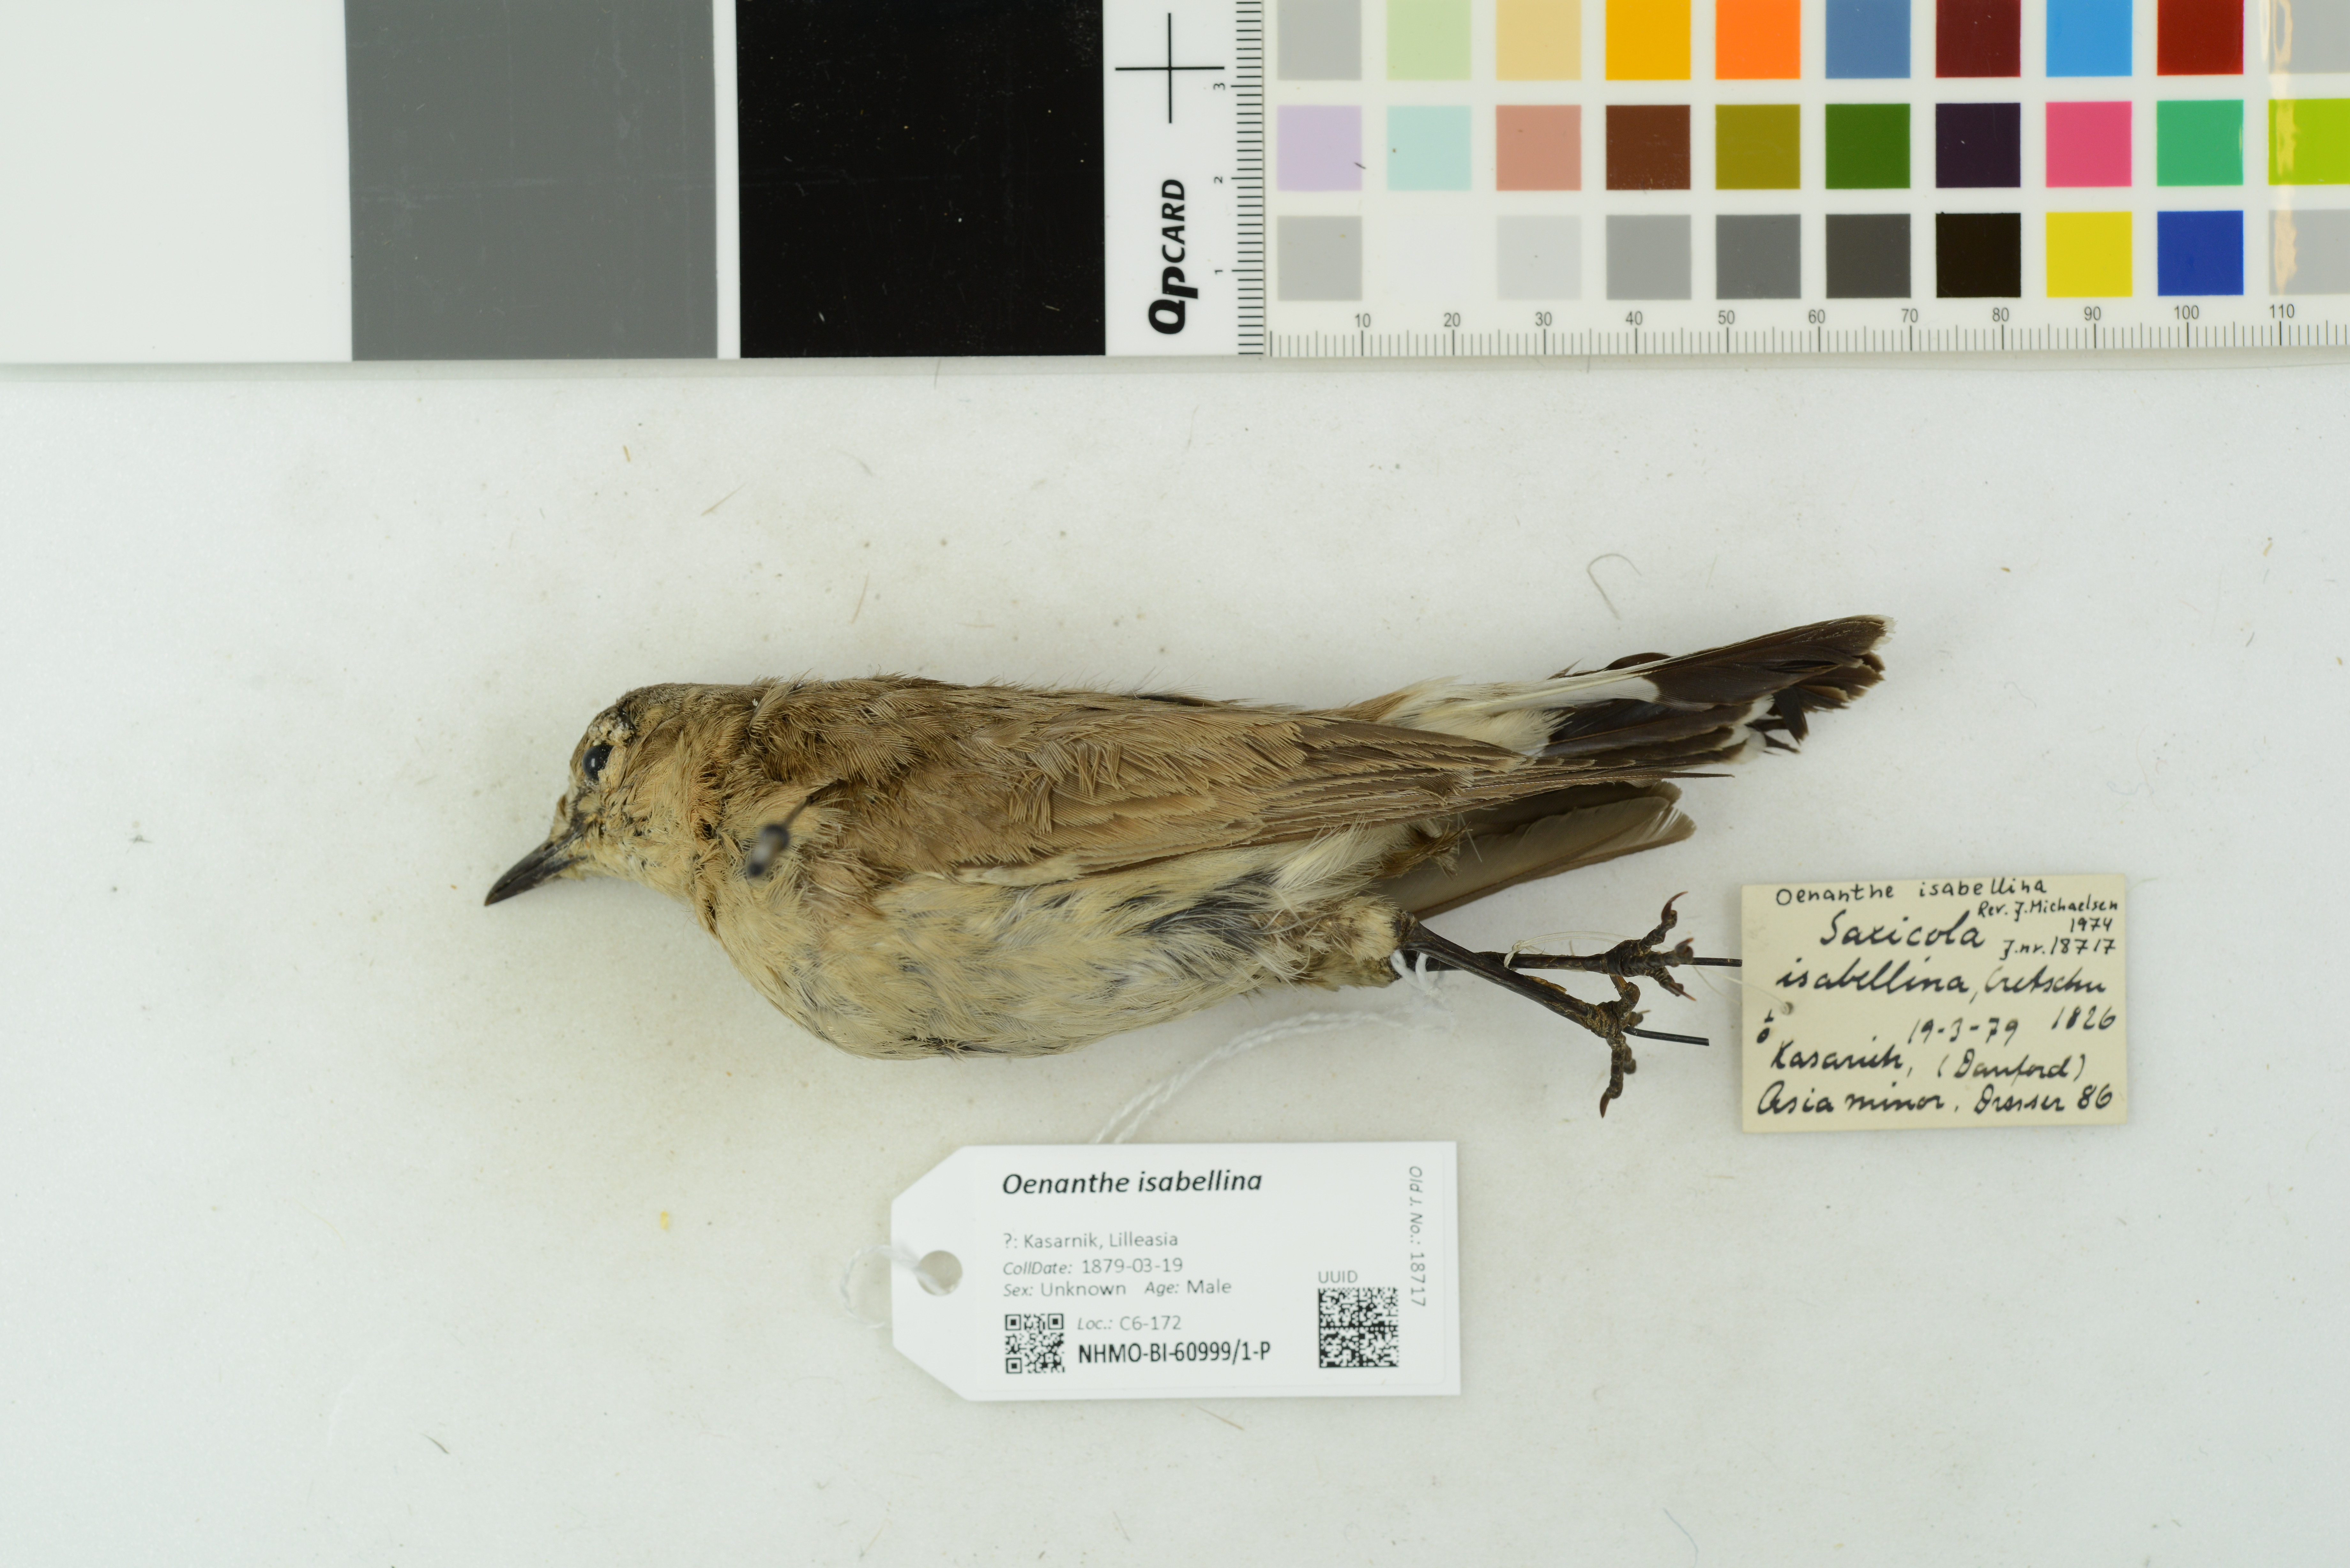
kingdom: Animalia
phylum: Chordata
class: Aves
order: Passeriformes
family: Muscicapidae
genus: Oenanthe
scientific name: Oenanthe isabellina
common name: Isabelline wheatear
